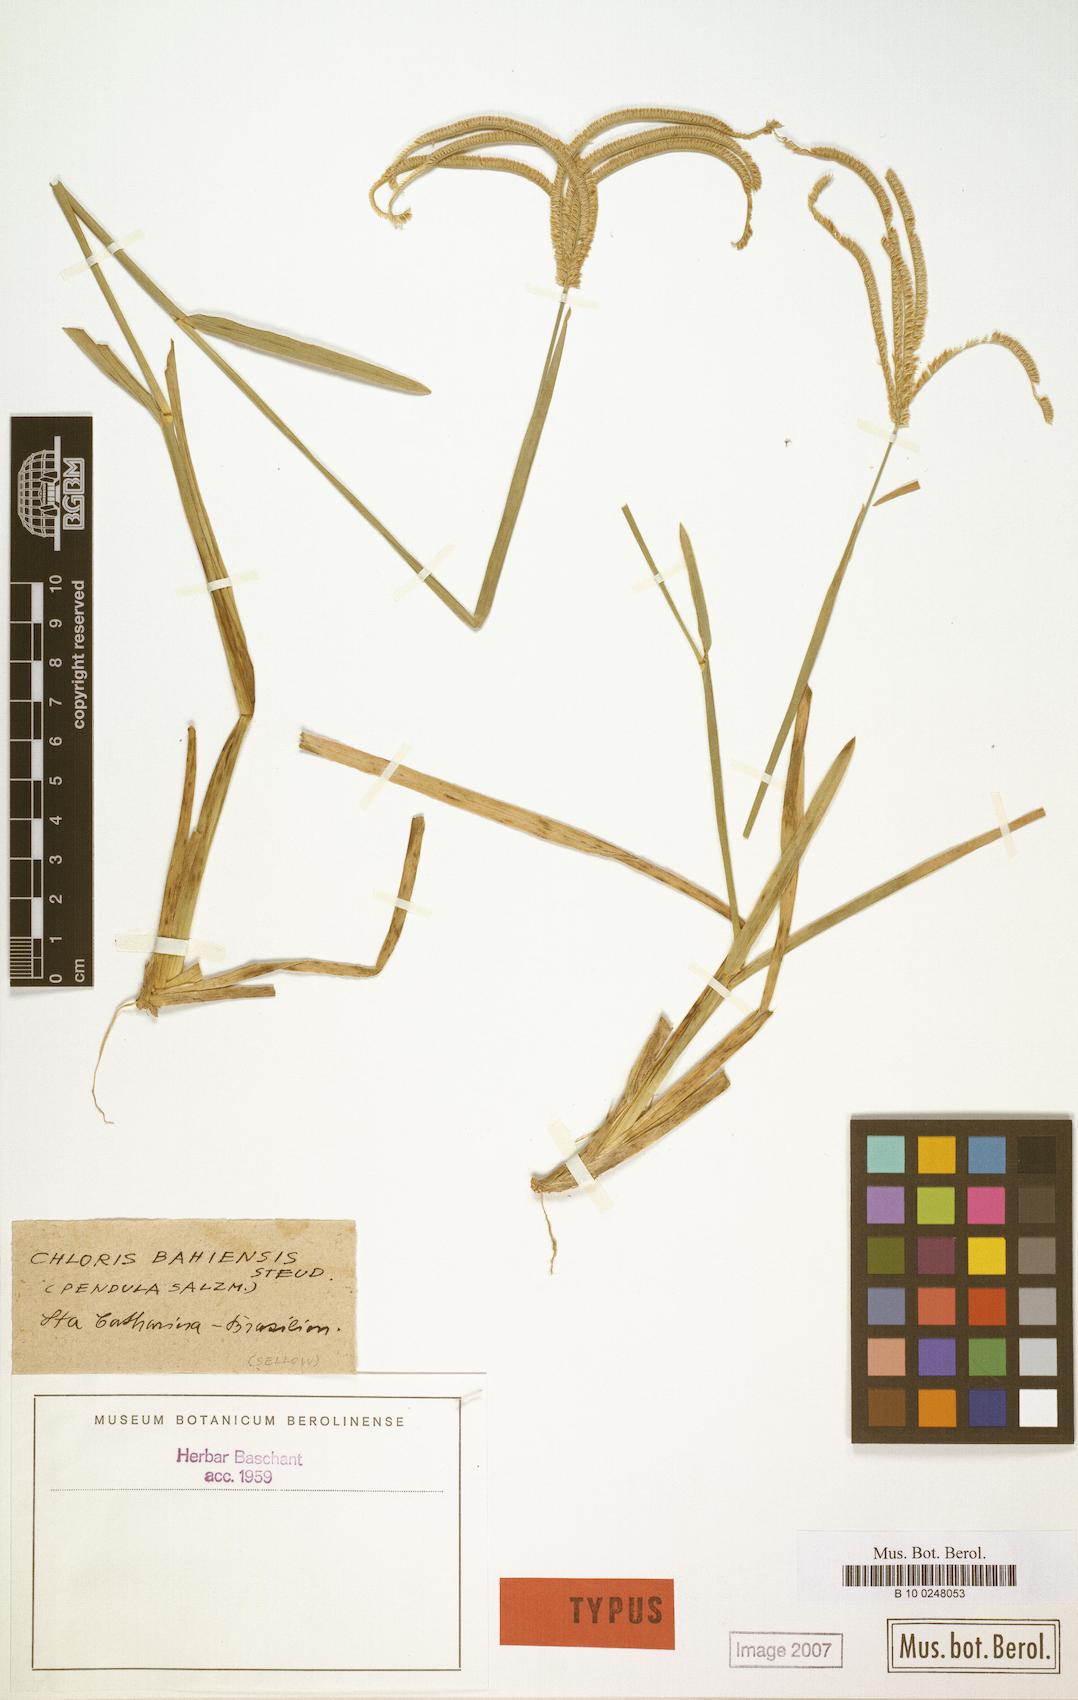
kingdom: Plantae
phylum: Tracheophyta
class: Liliopsida
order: Poales
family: Poaceae
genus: Eustachys
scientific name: Eustachys bahiensis
